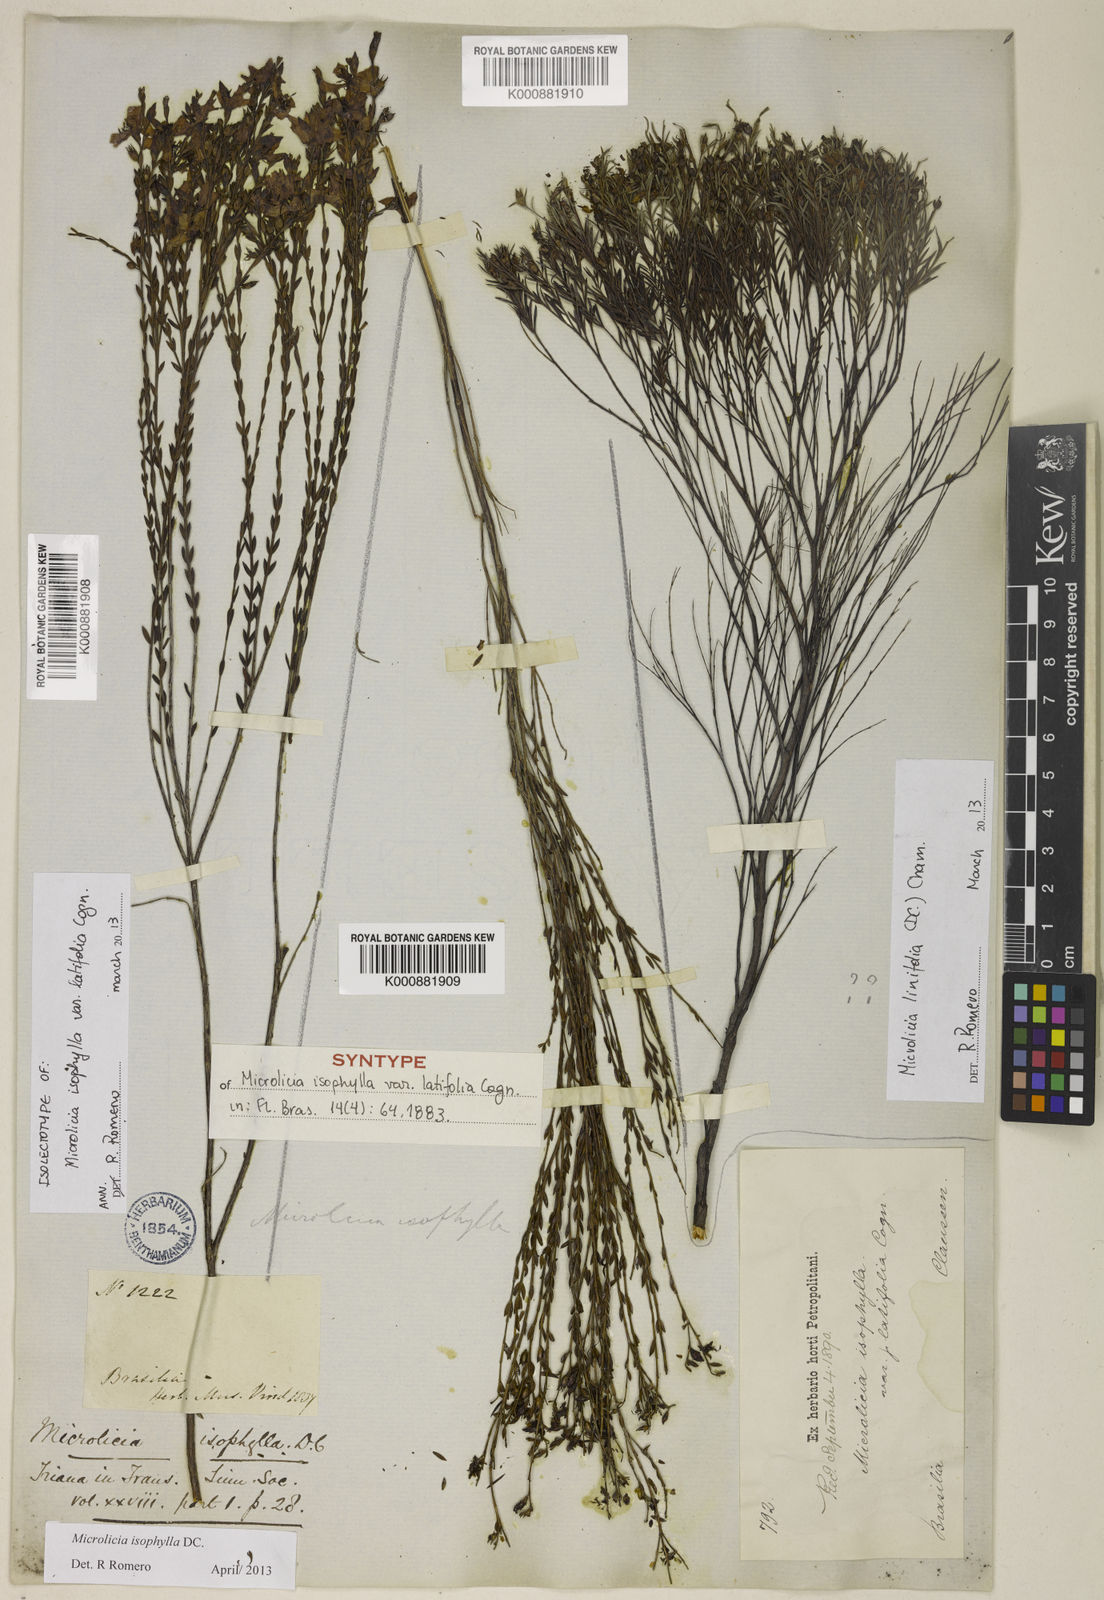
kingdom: Plantae
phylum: Tracheophyta
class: Magnoliopsida
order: Myrtales
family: Melastomataceae
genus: Microlicia
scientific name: Microlicia isophylla
